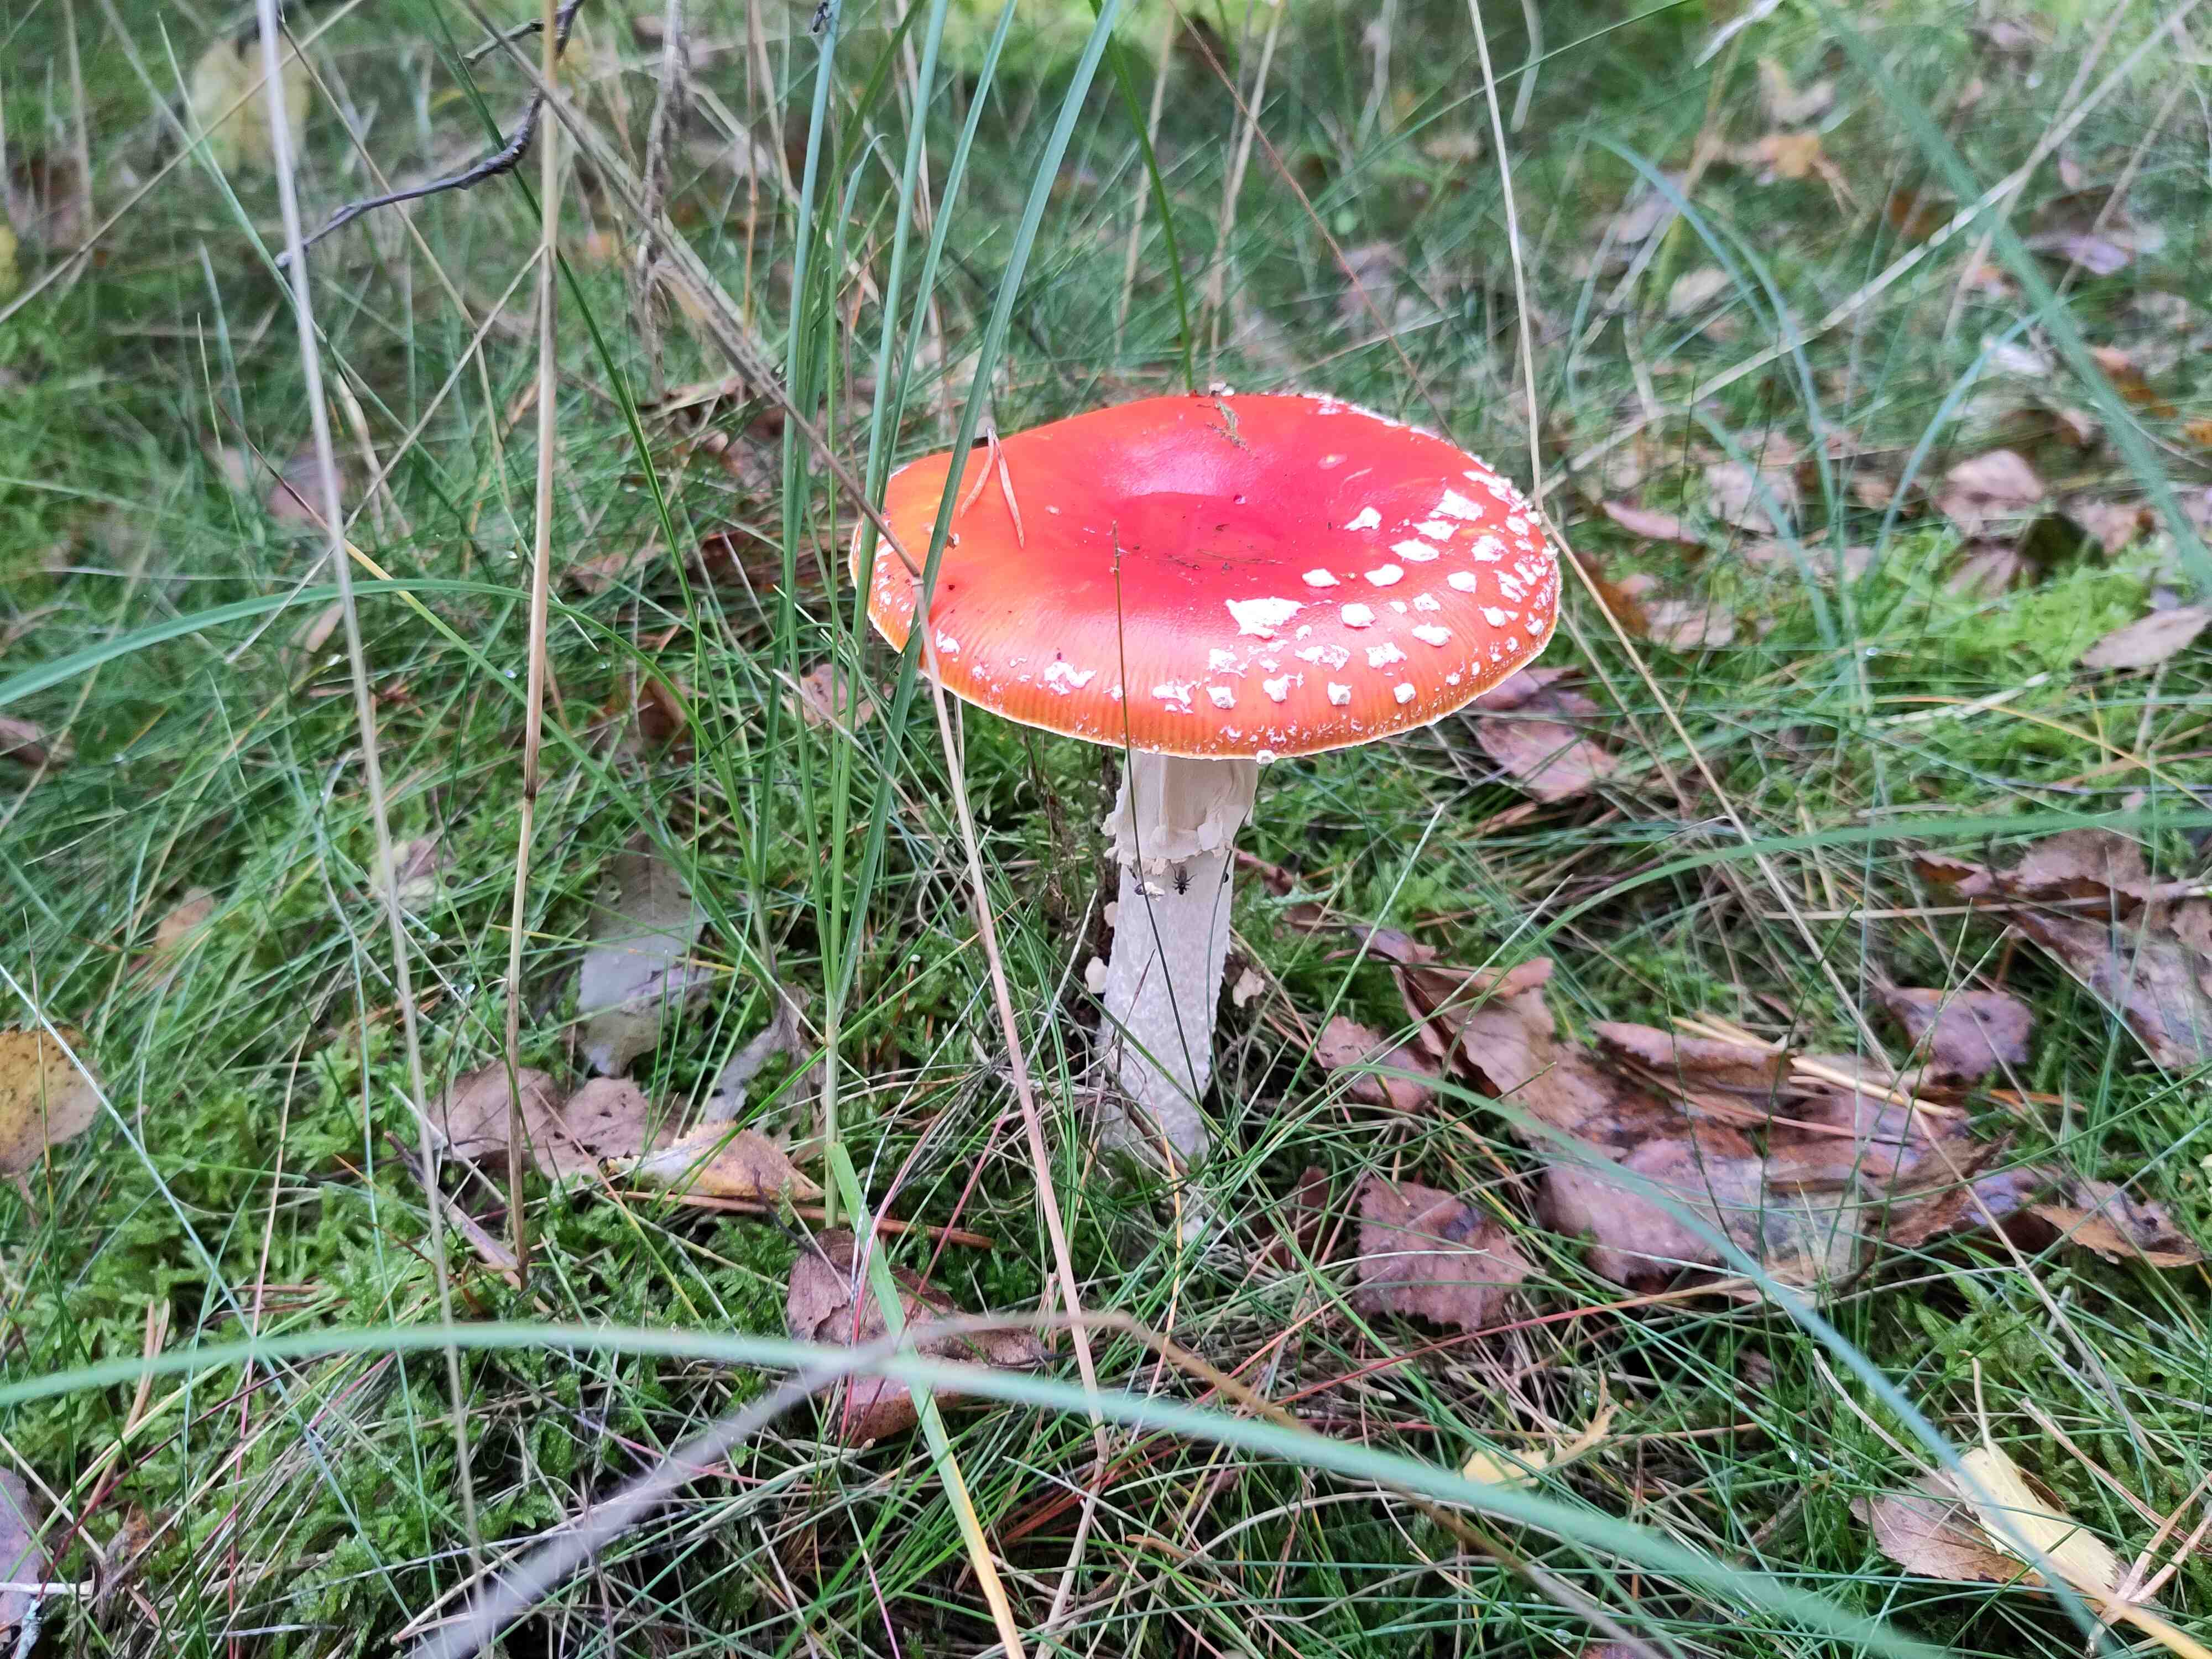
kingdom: Fungi
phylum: Basidiomycota
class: Agaricomycetes
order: Agaricales
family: Amanitaceae
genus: Amanita
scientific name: Amanita muscaria
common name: rød fluesvamp
